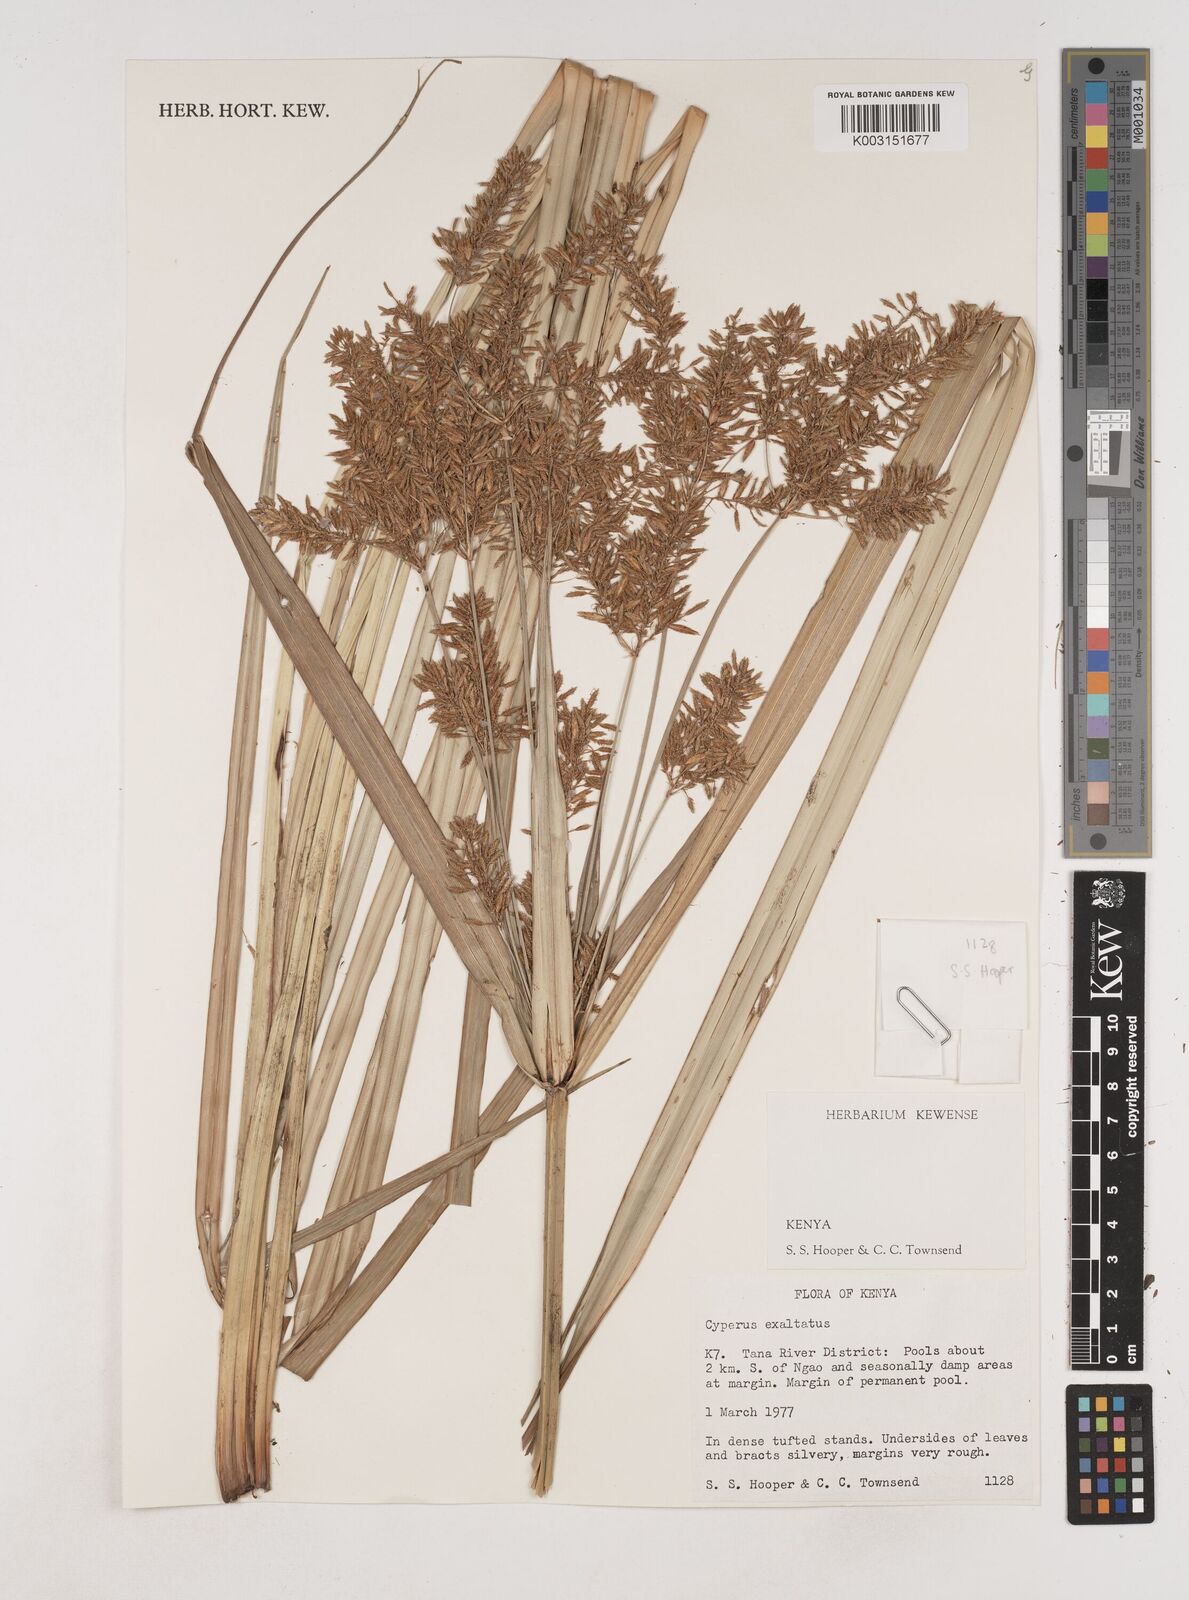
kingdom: Plantae
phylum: Tracheophyta
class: Liliopsida
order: Poales
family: Cyperaceae
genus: Cyperus
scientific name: Cyperus exaltatus
